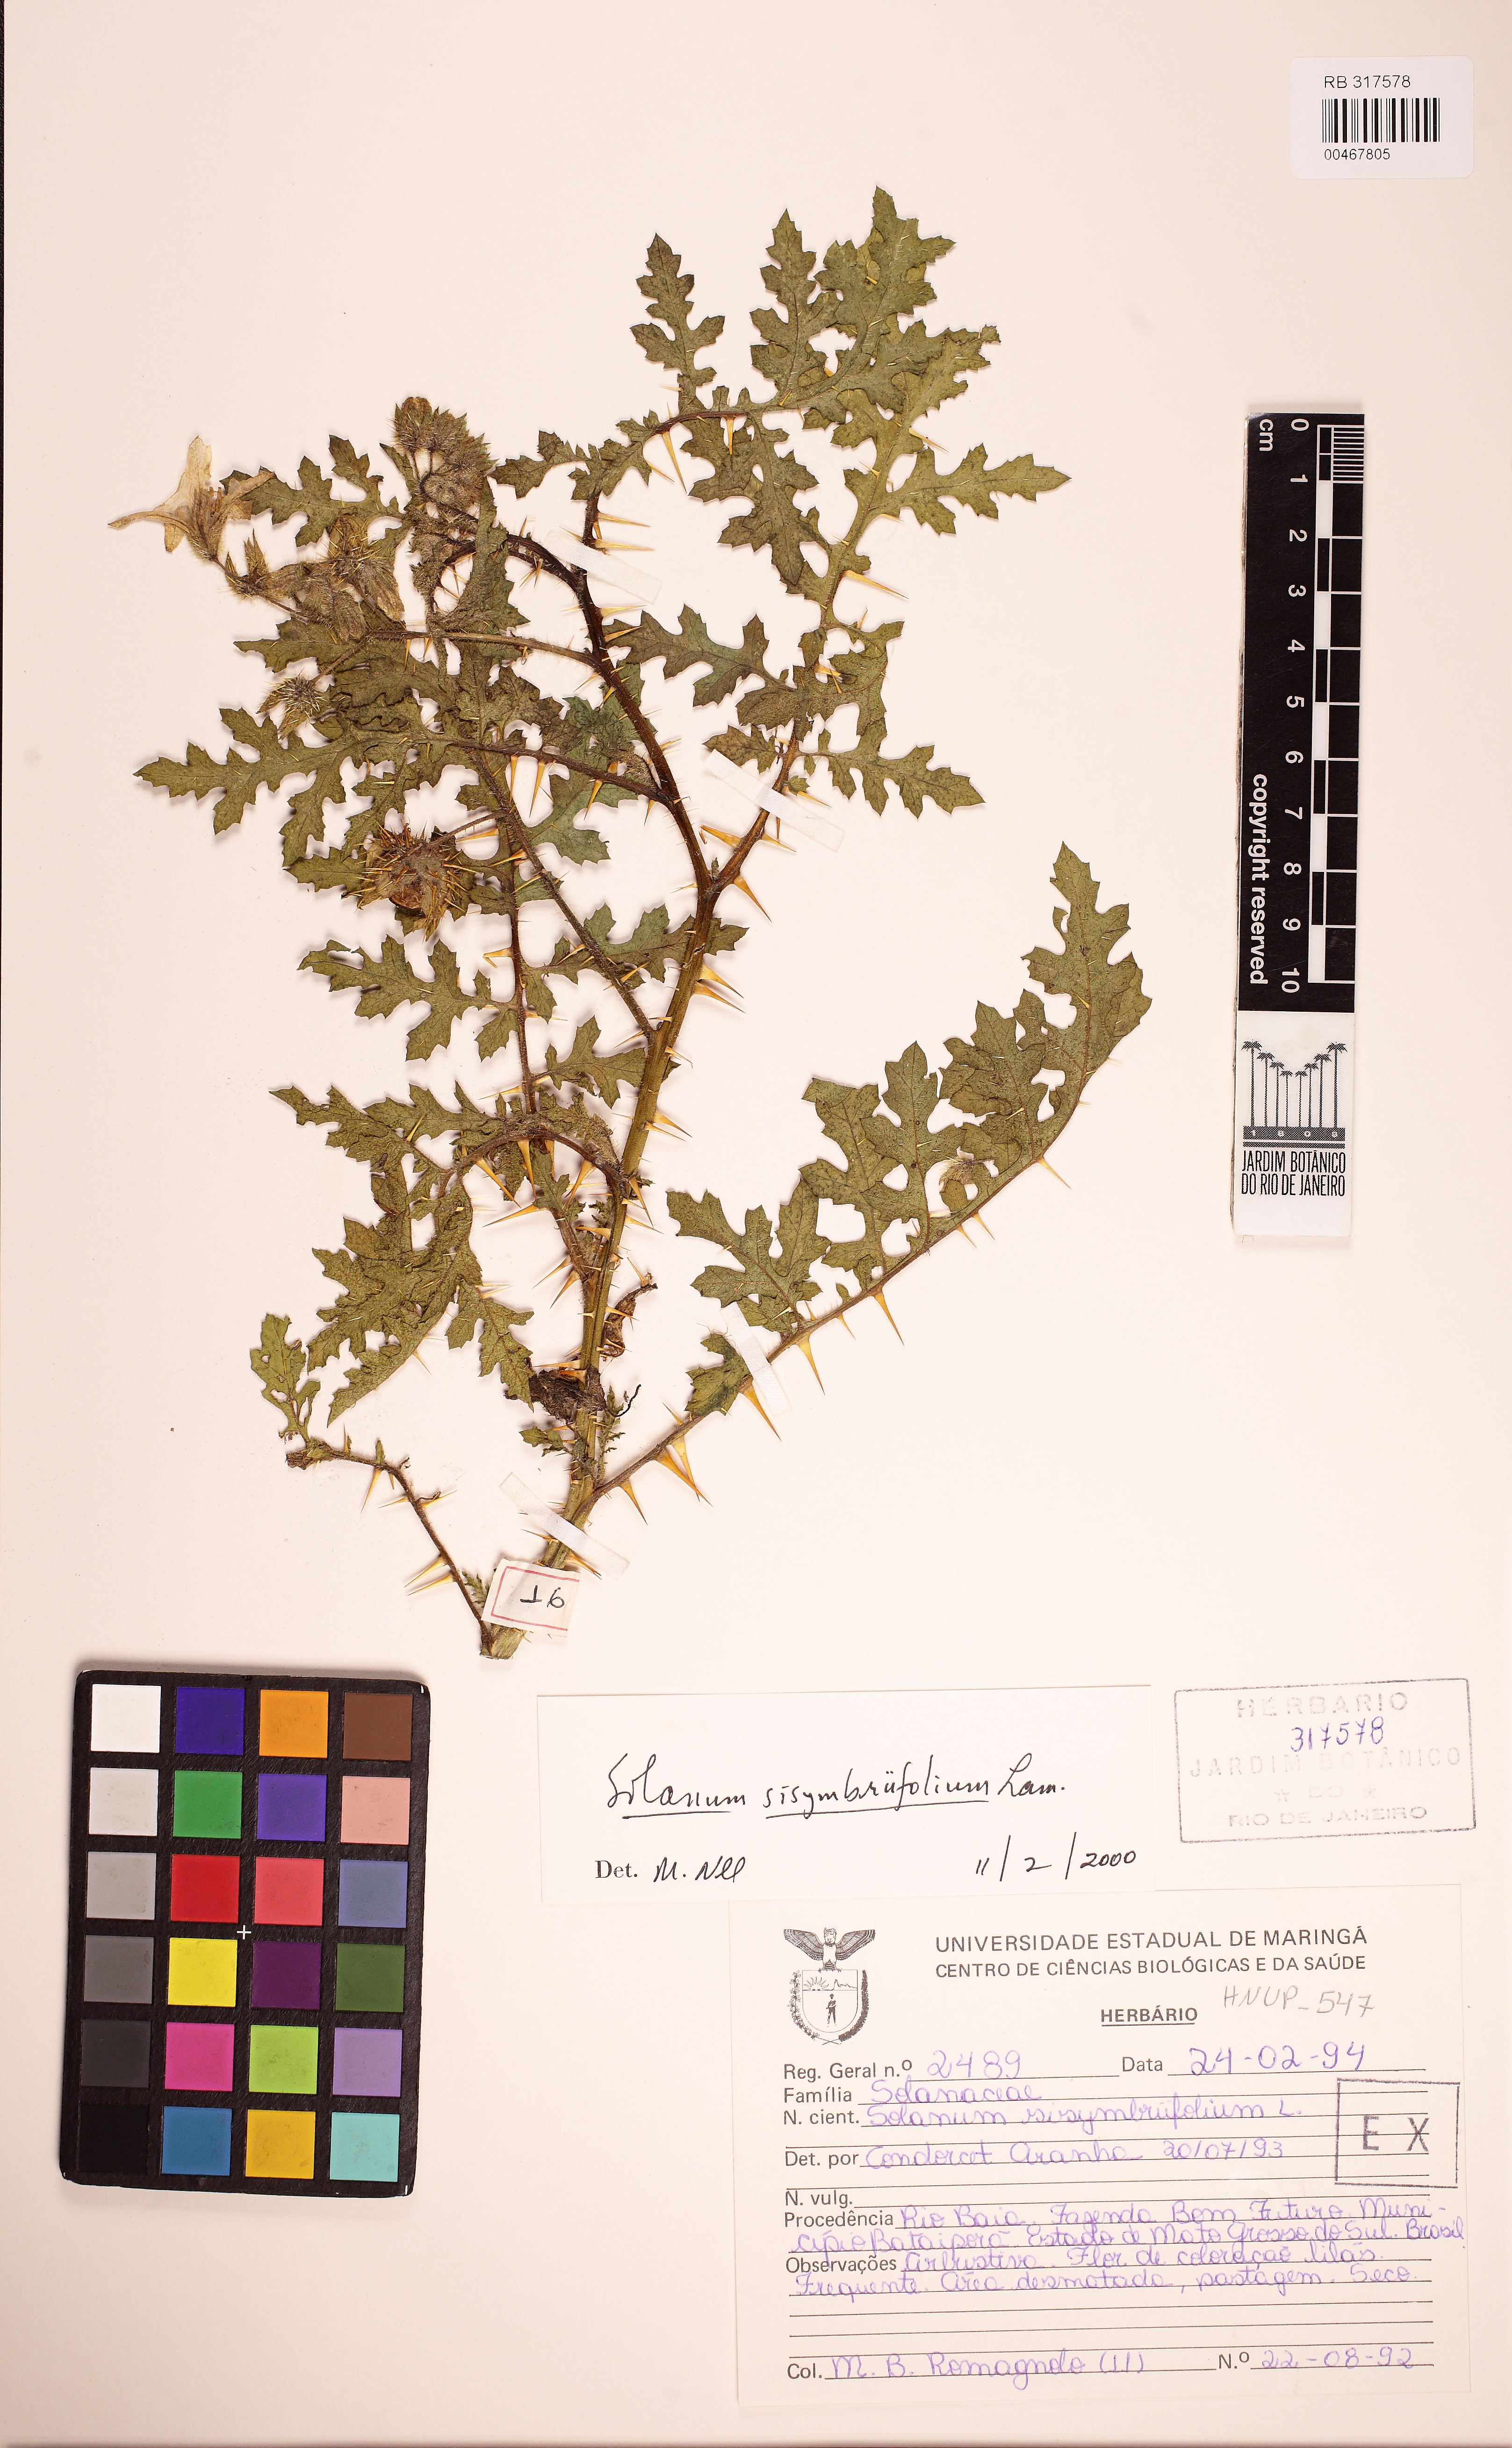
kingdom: Plantae
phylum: Tracheophyta
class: Magnoliopsida
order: Solanales
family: Solanaceae
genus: Solanum
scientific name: Solanum sisymbriifolium
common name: Red buffalo-bur
